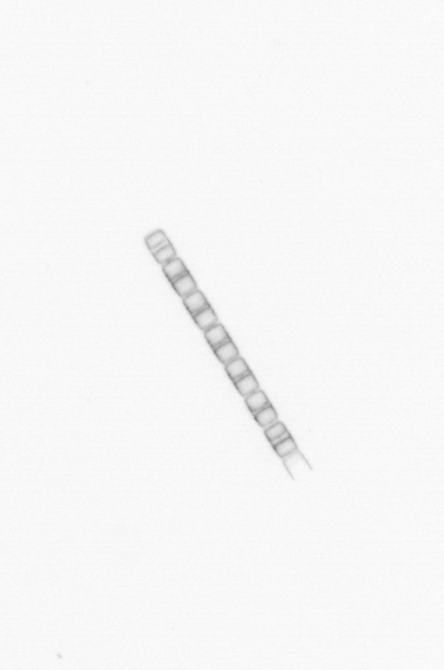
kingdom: Chromista
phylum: Ochrophyta
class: Bacillariophyceae
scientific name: Bacillariophyceae
